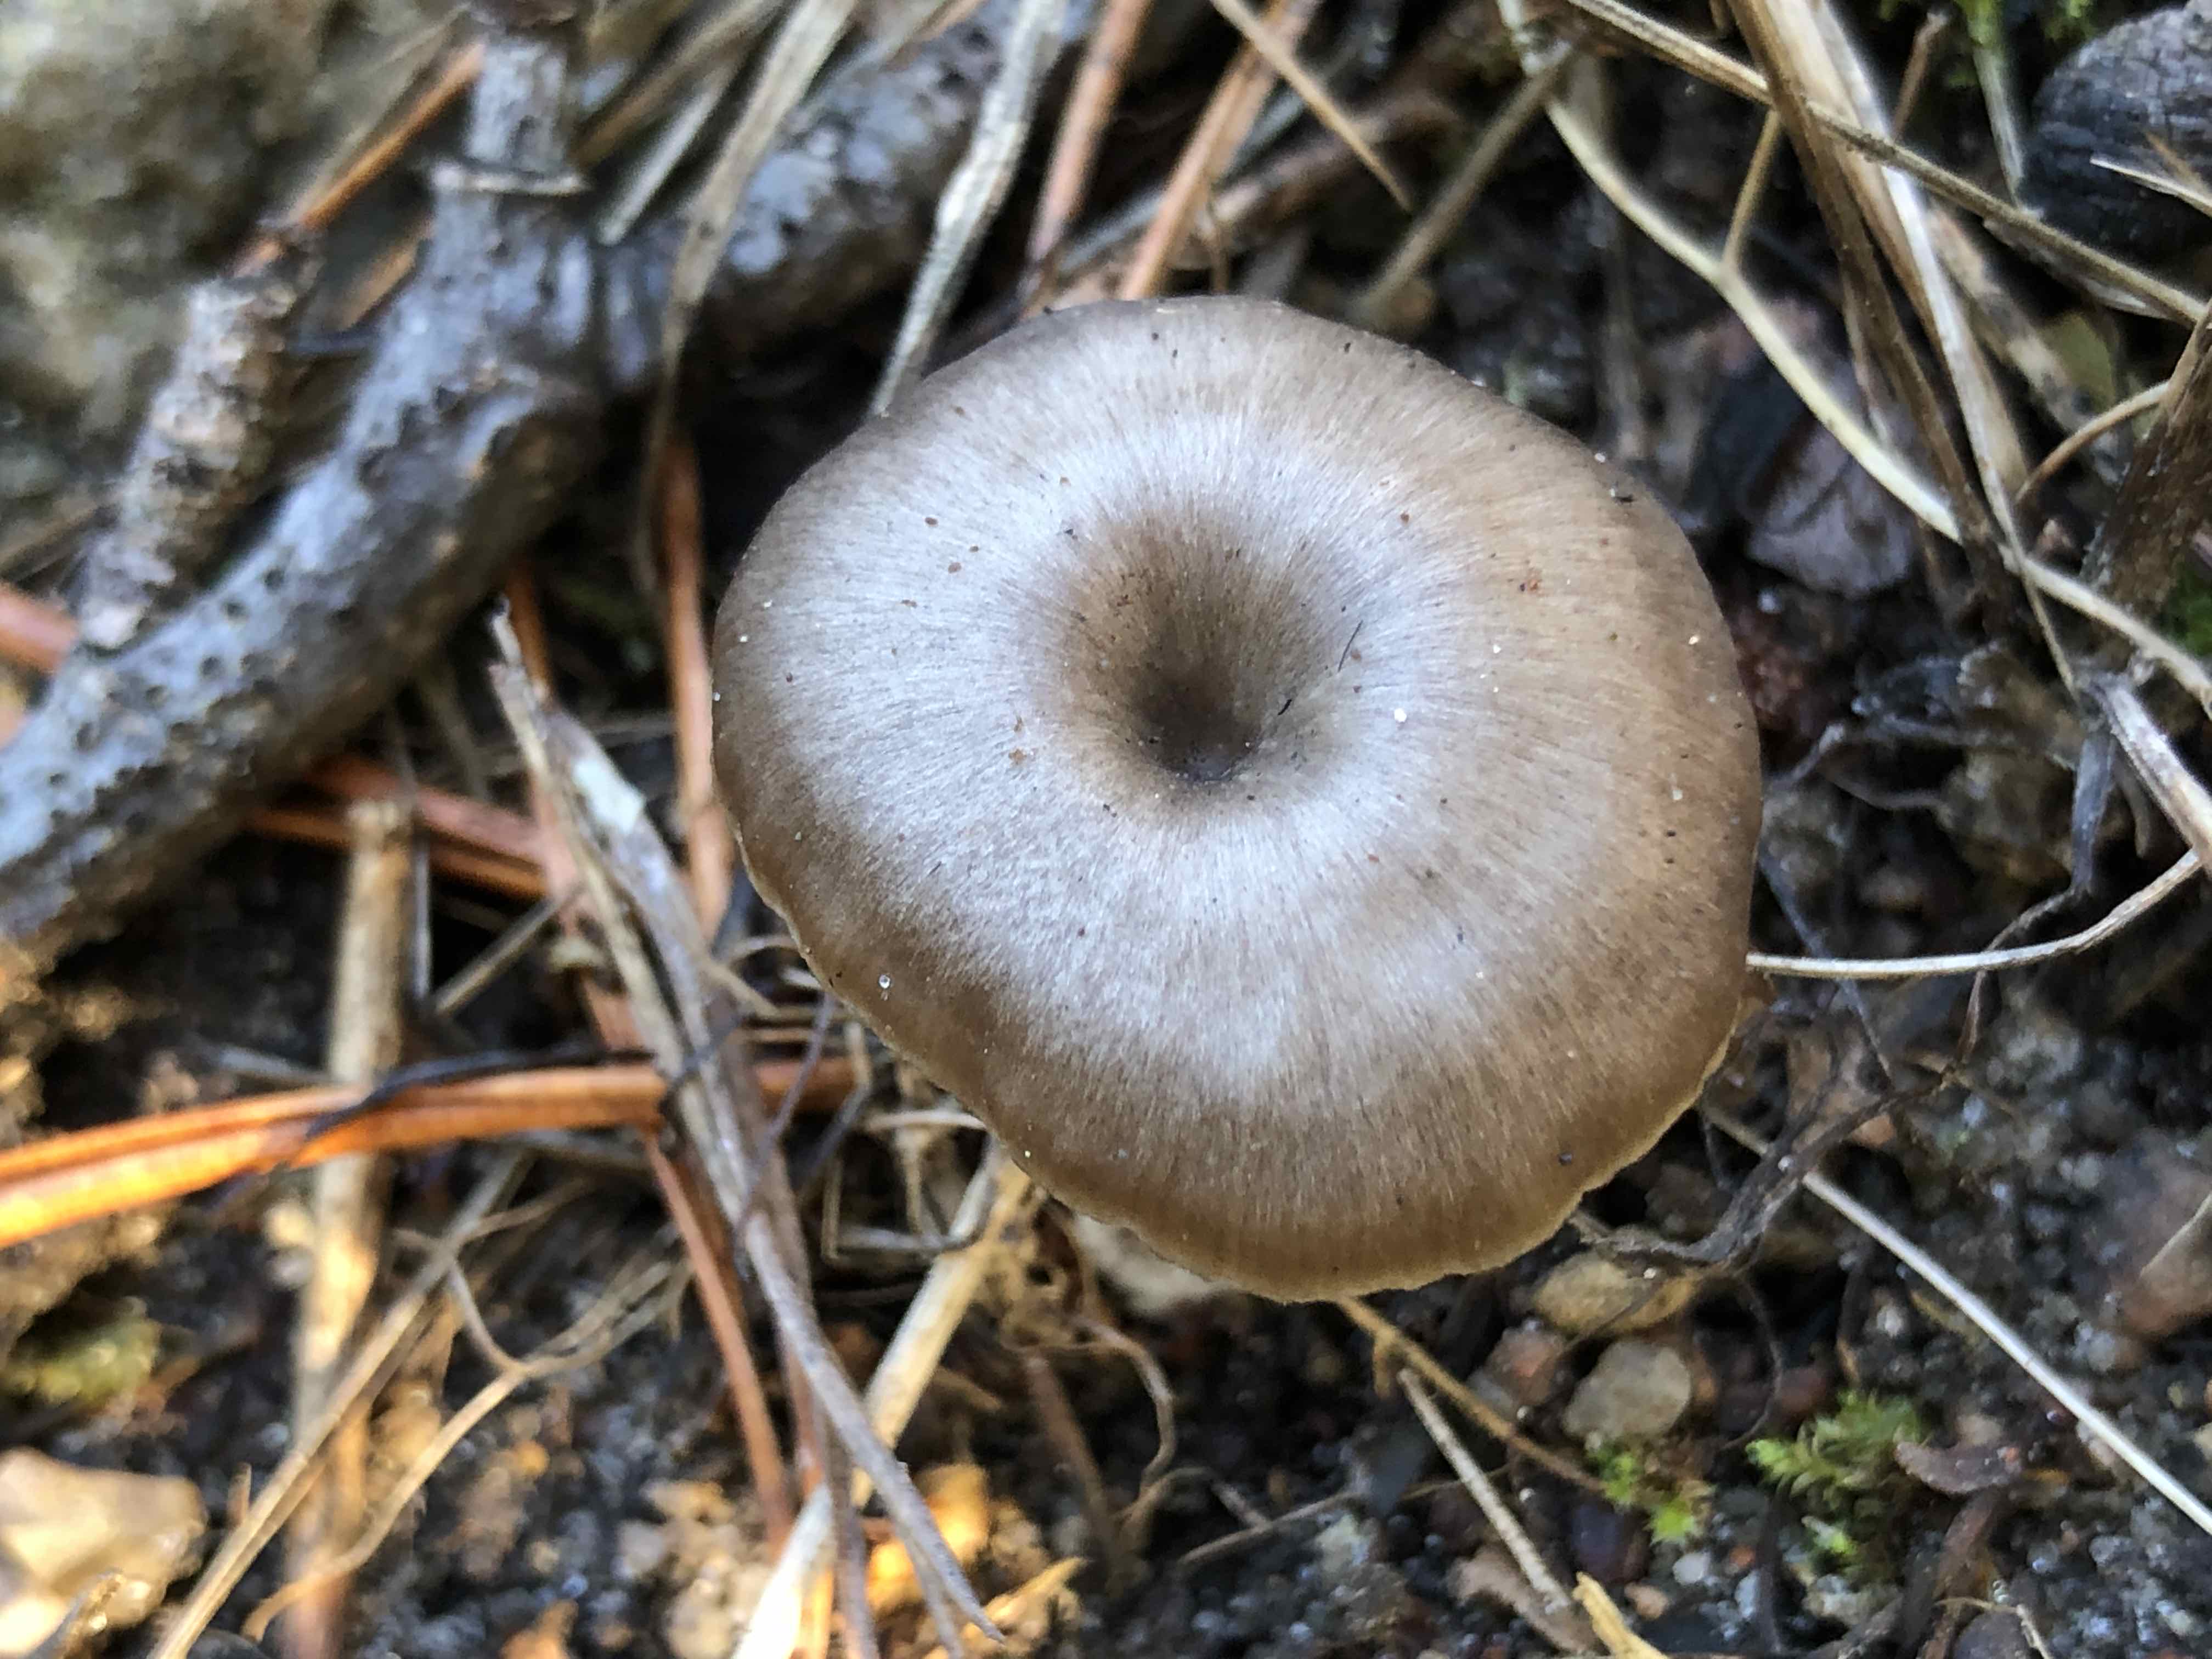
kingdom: Fungi
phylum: Basidiomycota
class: Agaricomycetes
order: Agaricales
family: Tricholomataceae
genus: Myxomphalia
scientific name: Myxomphalia maura
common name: kulhat
